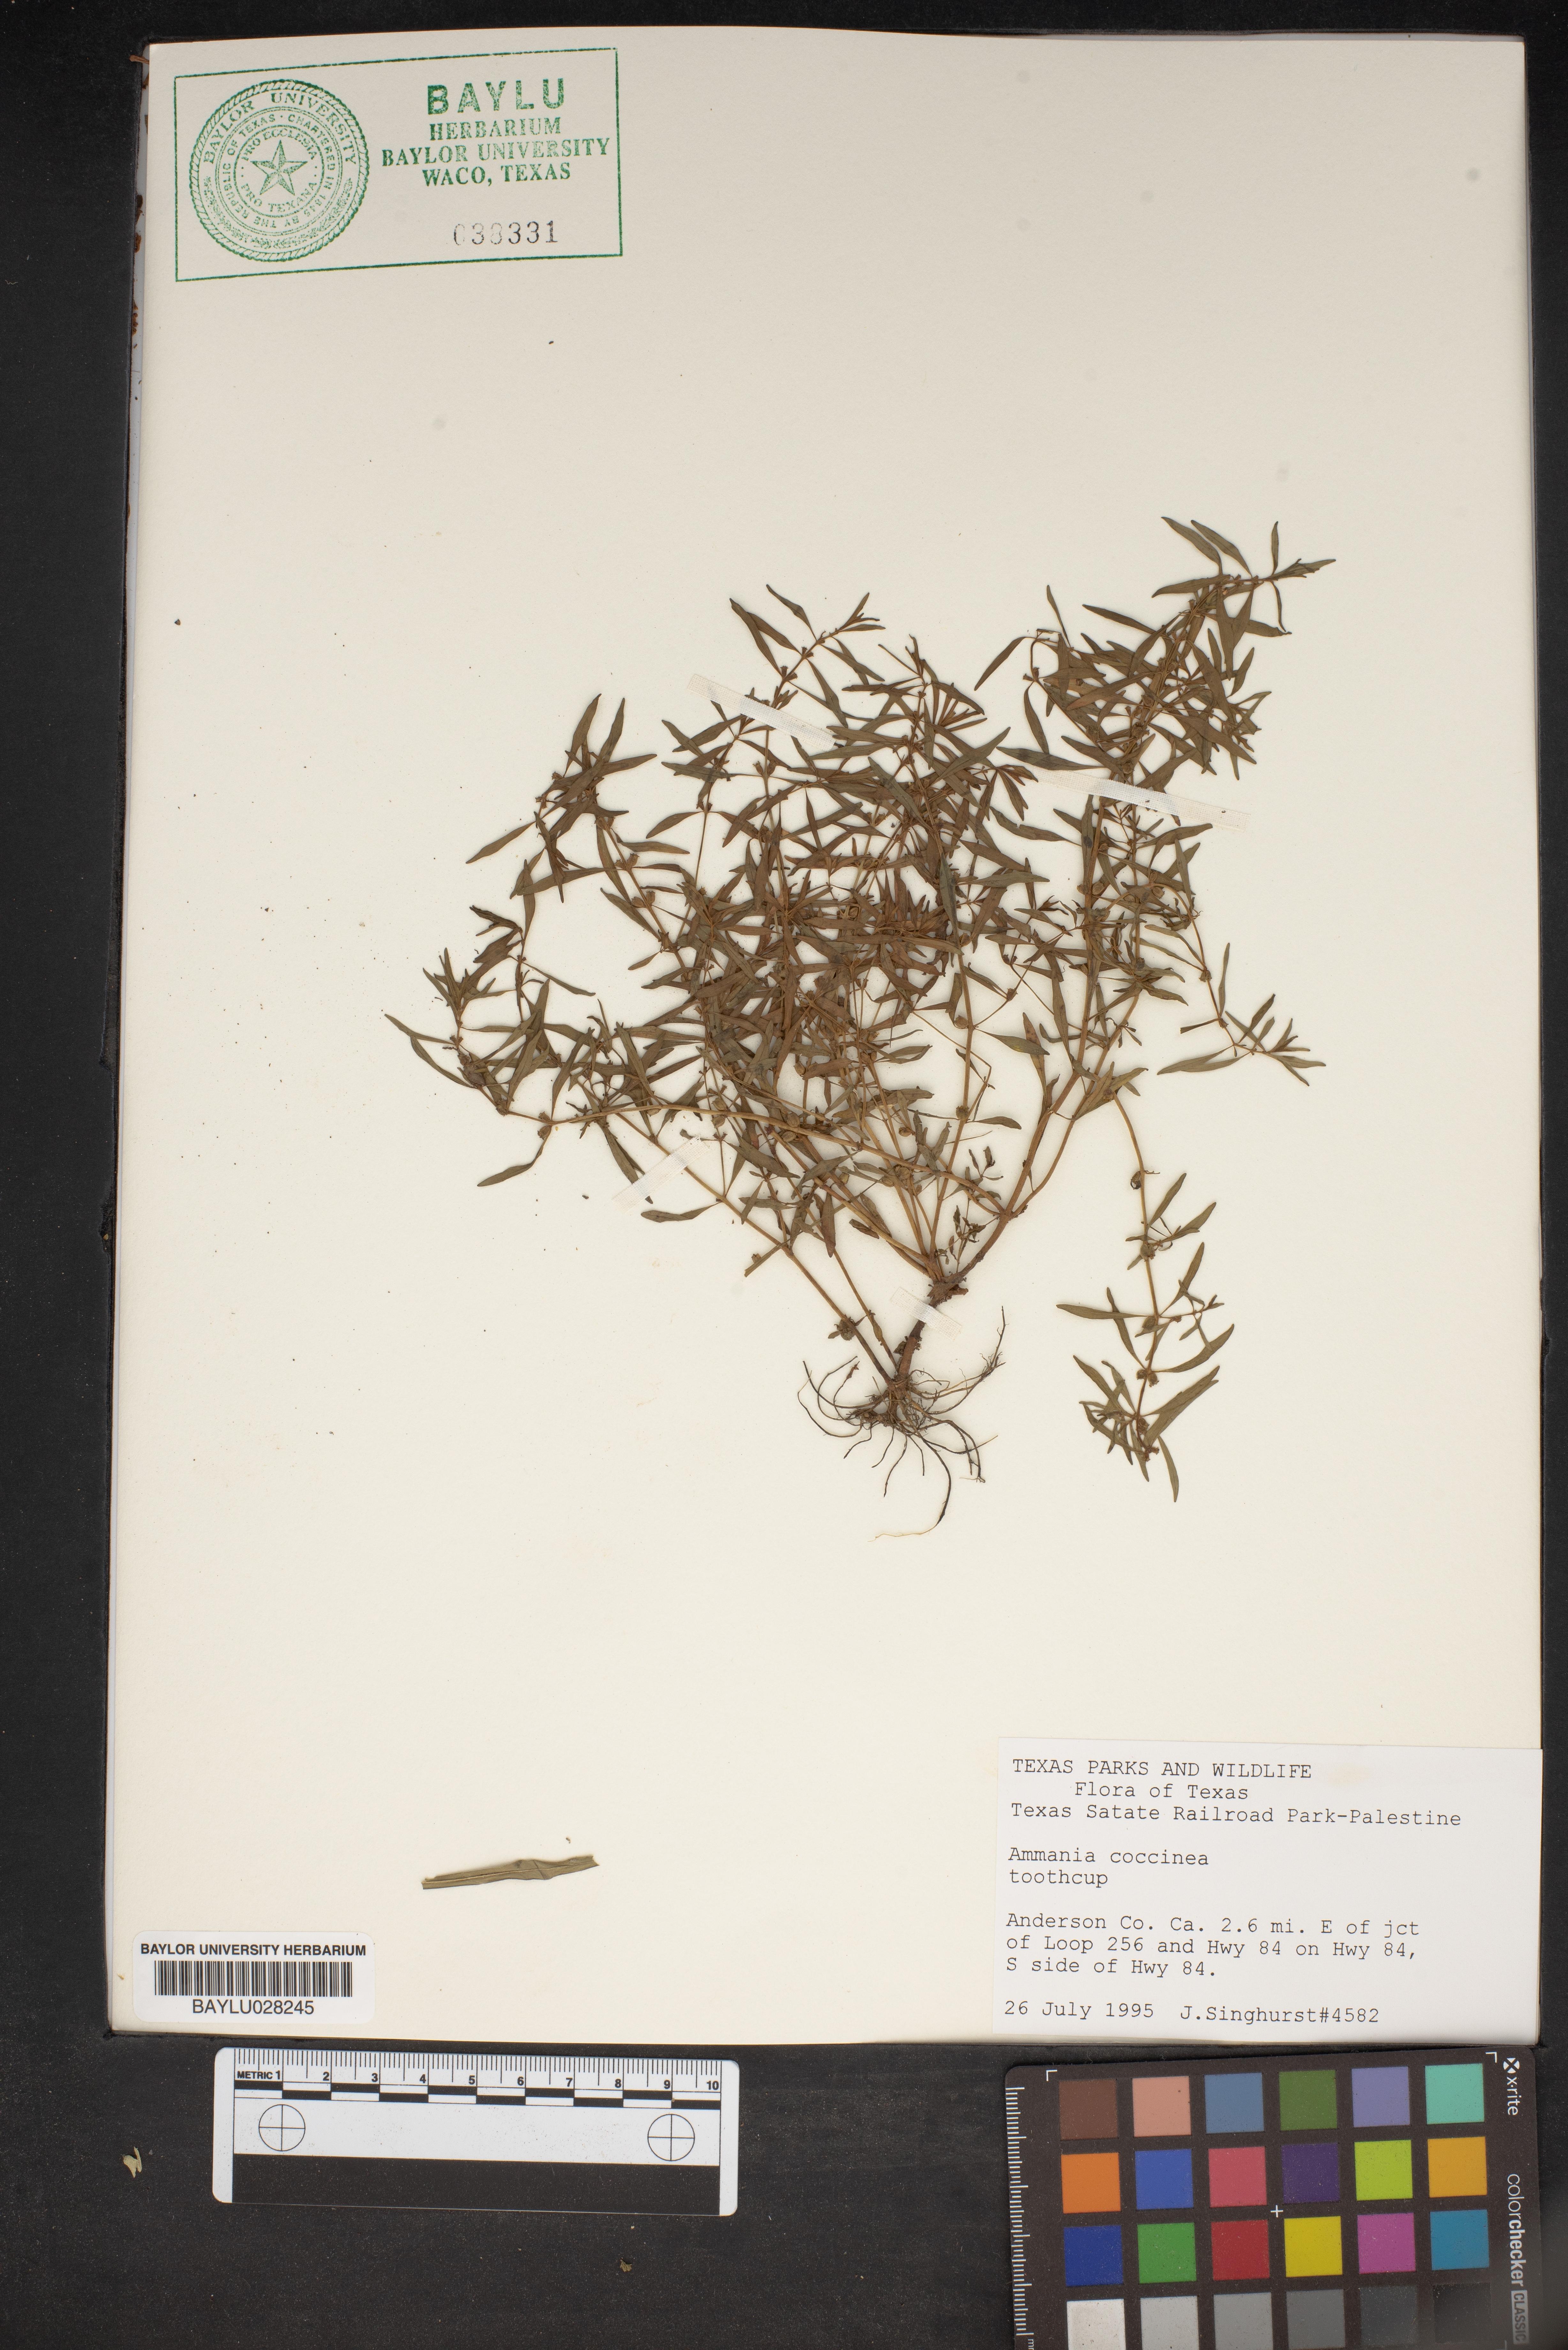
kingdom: Plantae
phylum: Tracheophyta
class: Magnoliopsida
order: Myrtales
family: Lythraceae
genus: Ammannia
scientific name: Ammannia coccinea
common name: Valley redstem
